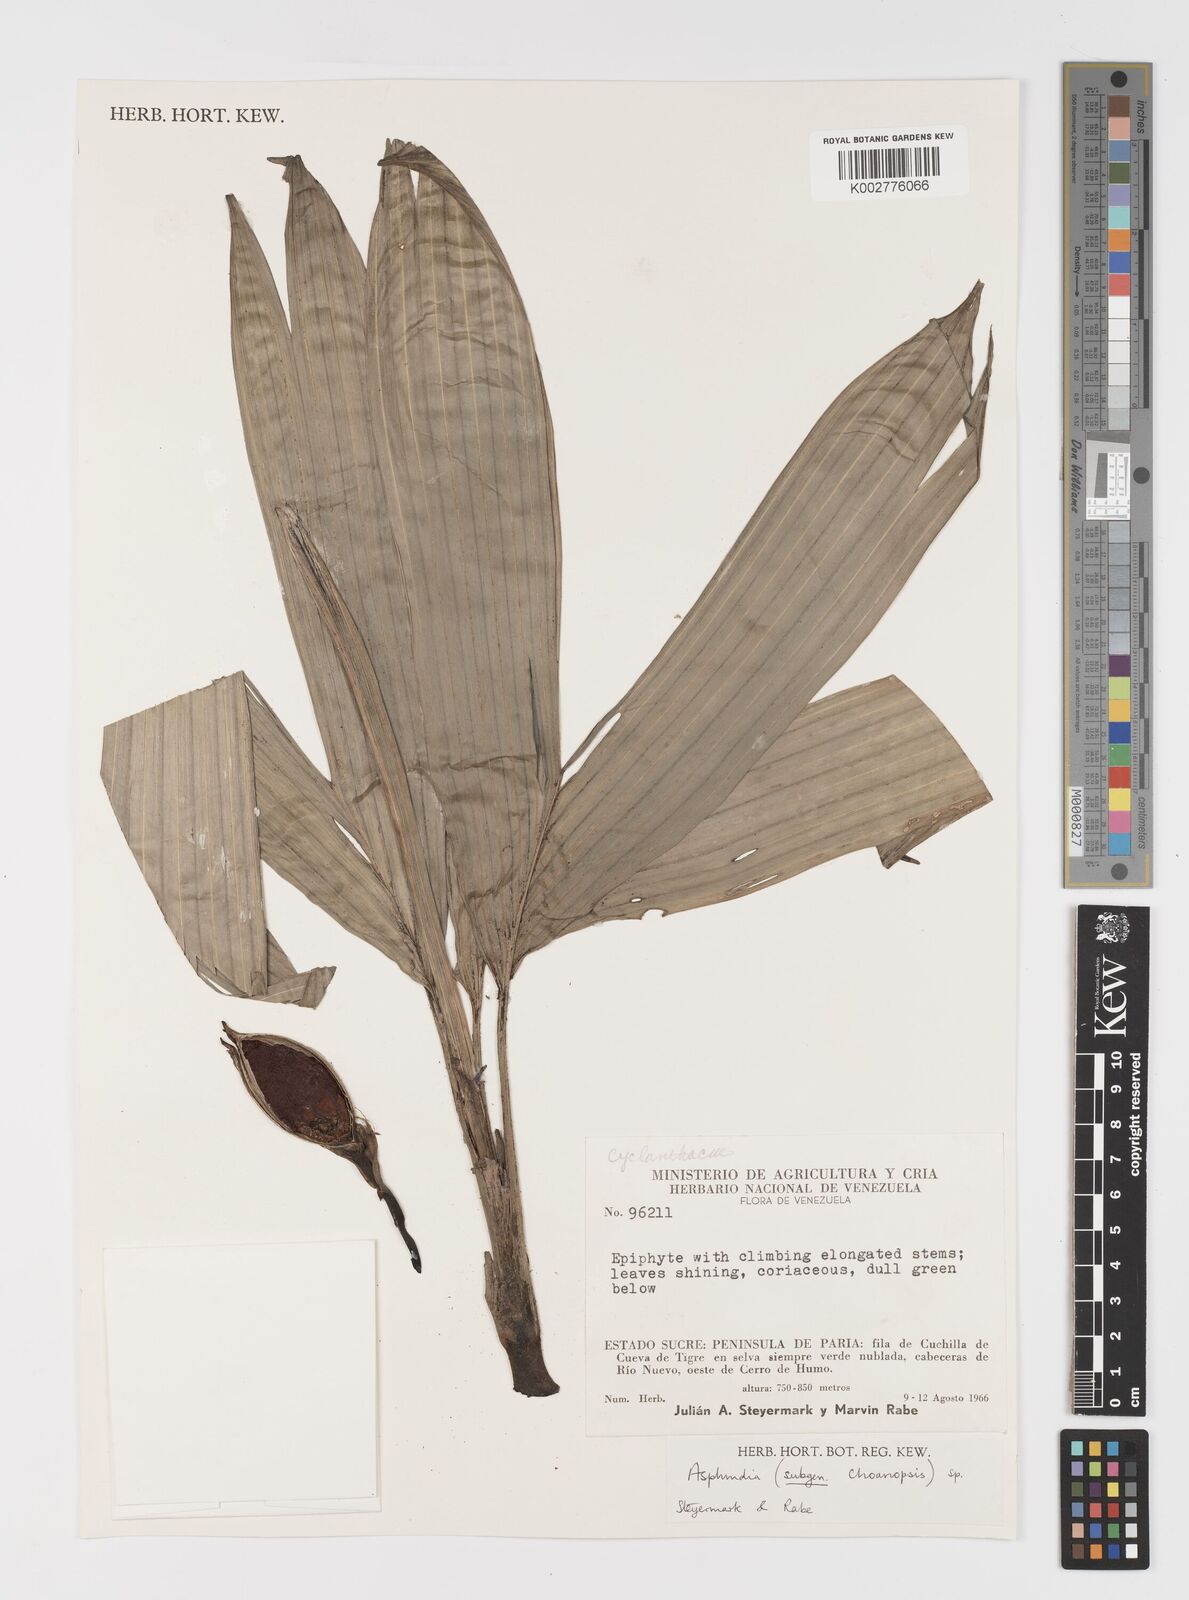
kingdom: Plantae
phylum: Tracheophyta
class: Liliopsida
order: Pandanales
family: Cyclanthaceae
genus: Asplundia
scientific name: Asplundia
